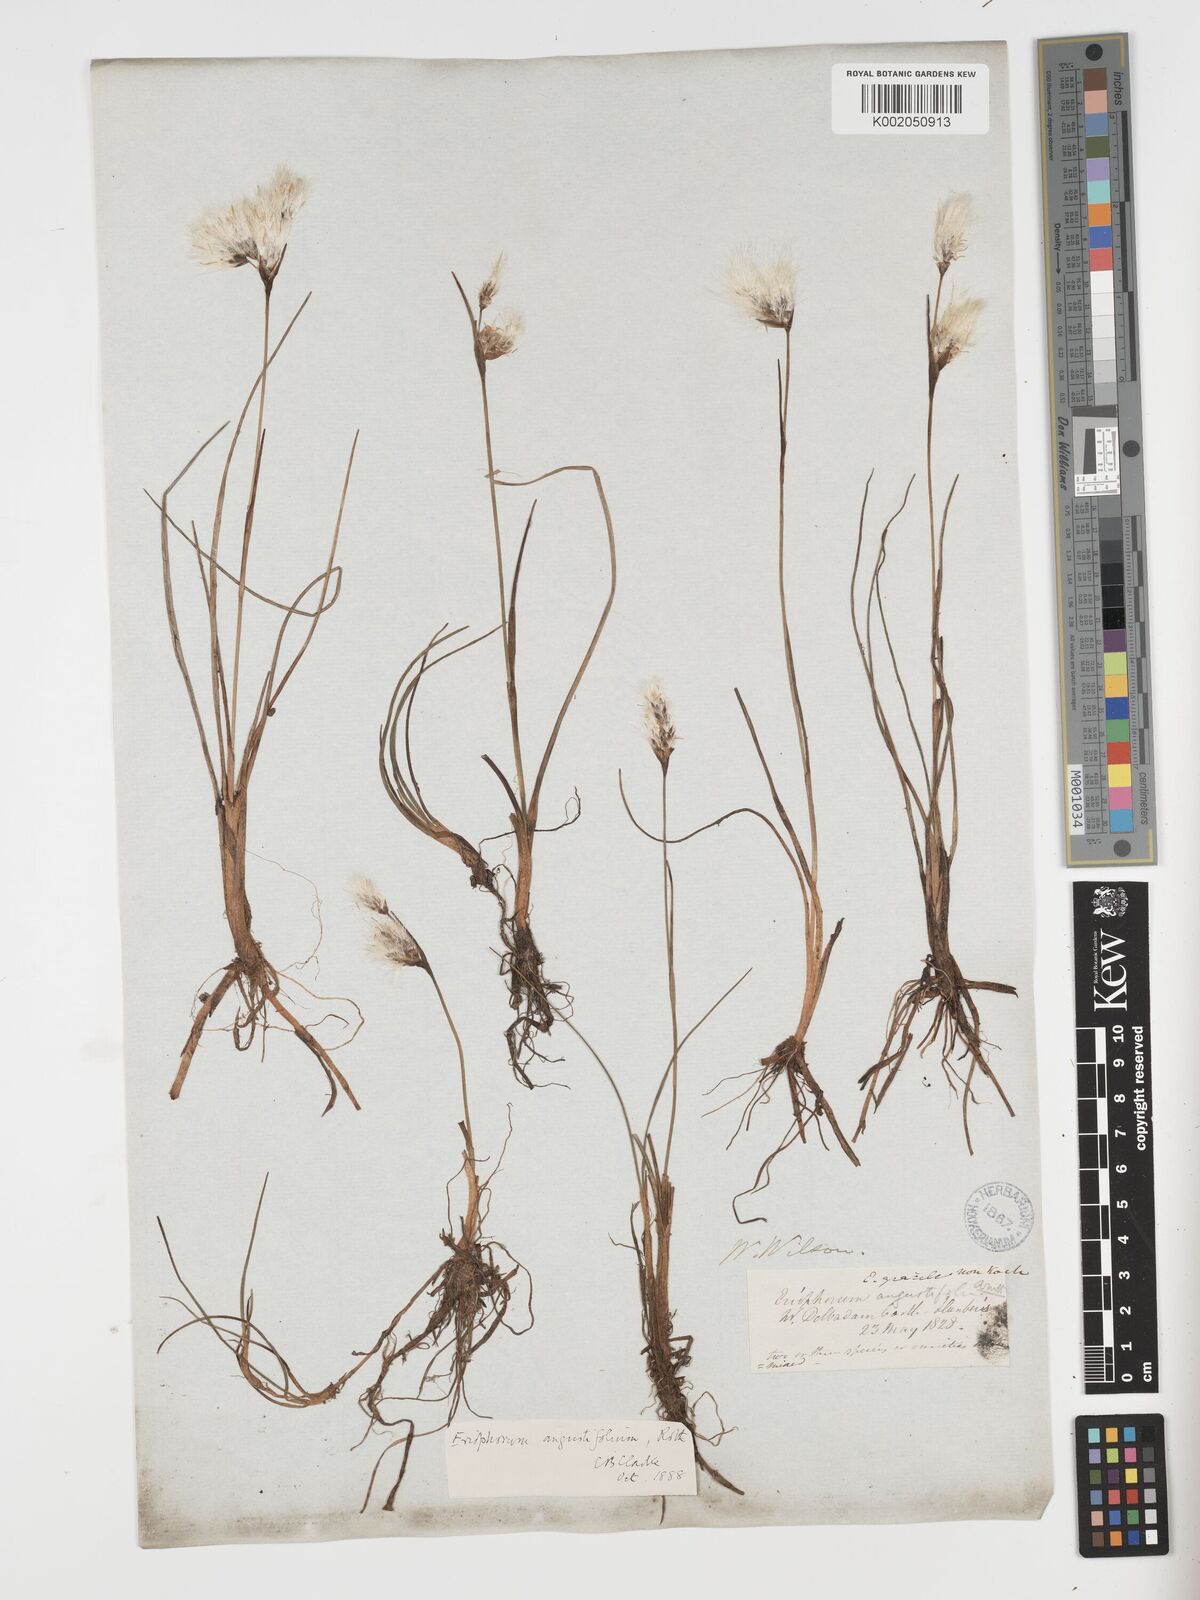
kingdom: Plantae
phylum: Tracheophyta
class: Liliopsida
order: Poales
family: Cyperaceae
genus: Eriophorum
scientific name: Eriophorum angustifolium
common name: Common cottongrass
